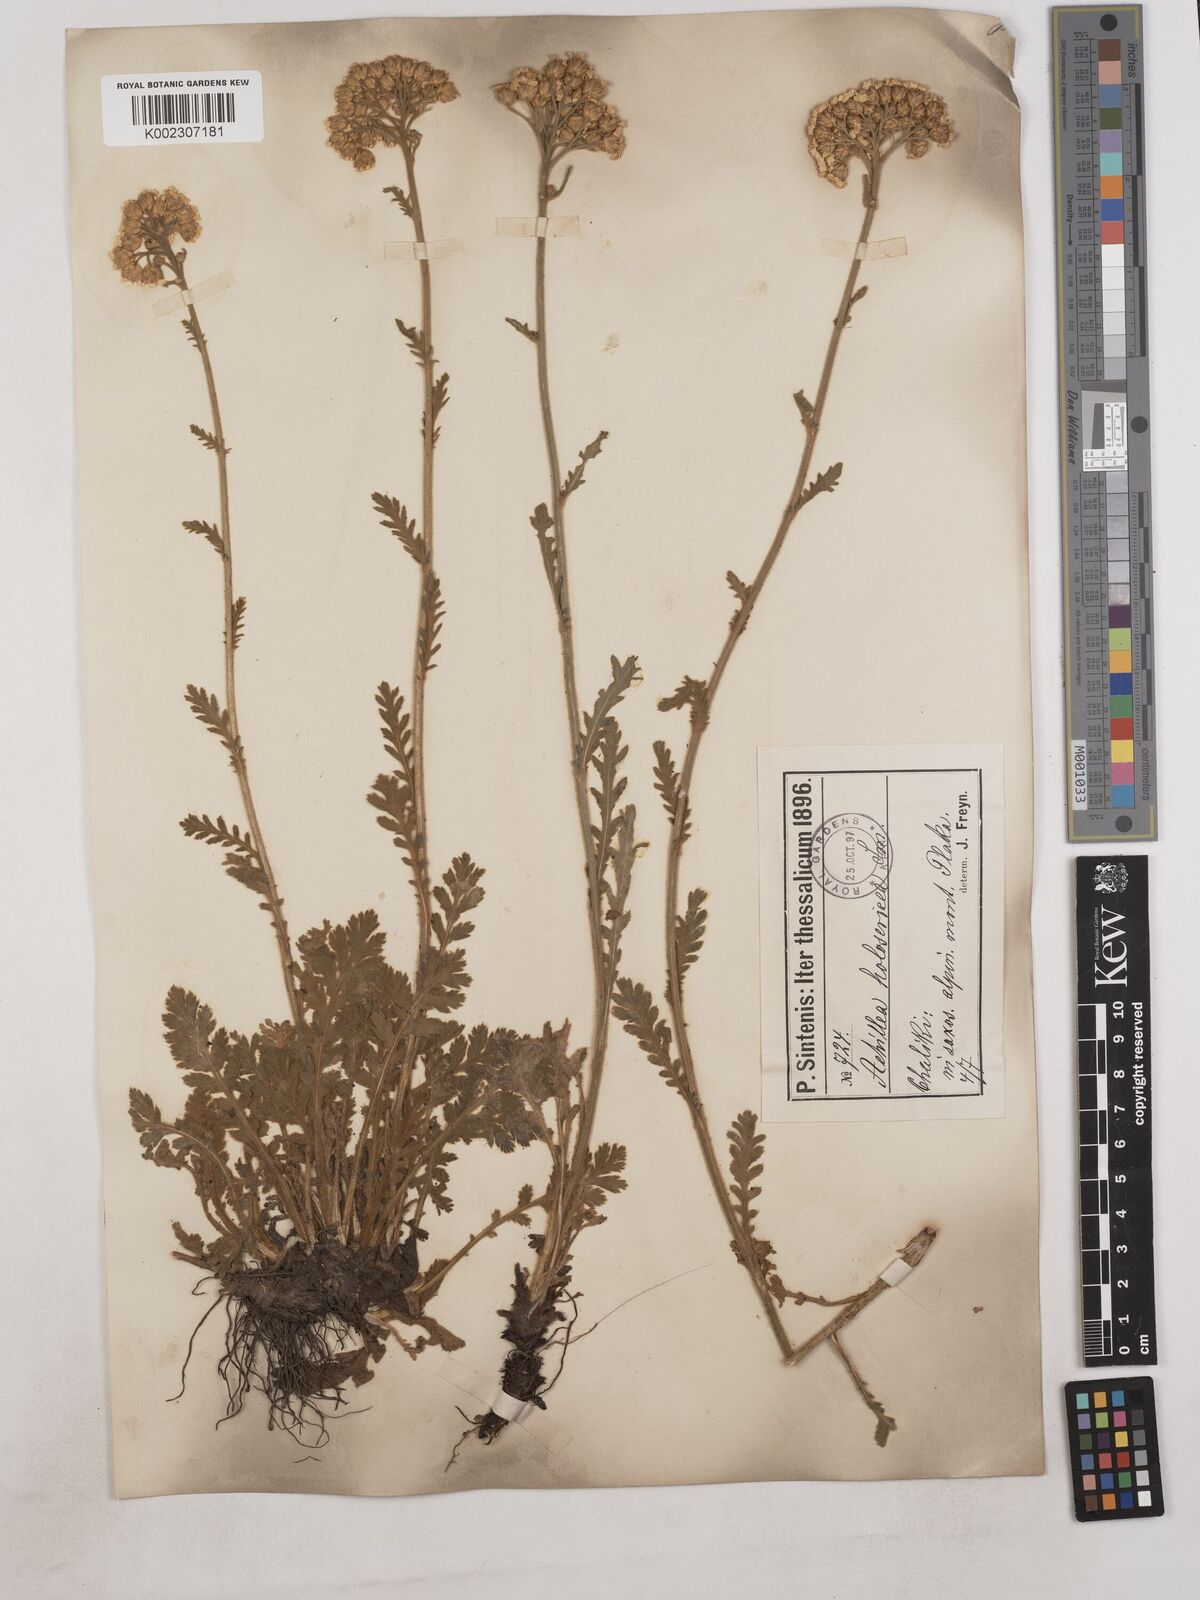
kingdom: Plantae
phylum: Tracheophyta
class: Magnoliopsida
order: Asterales
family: Asteraceae
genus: Achillea
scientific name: Achillea holosericea
